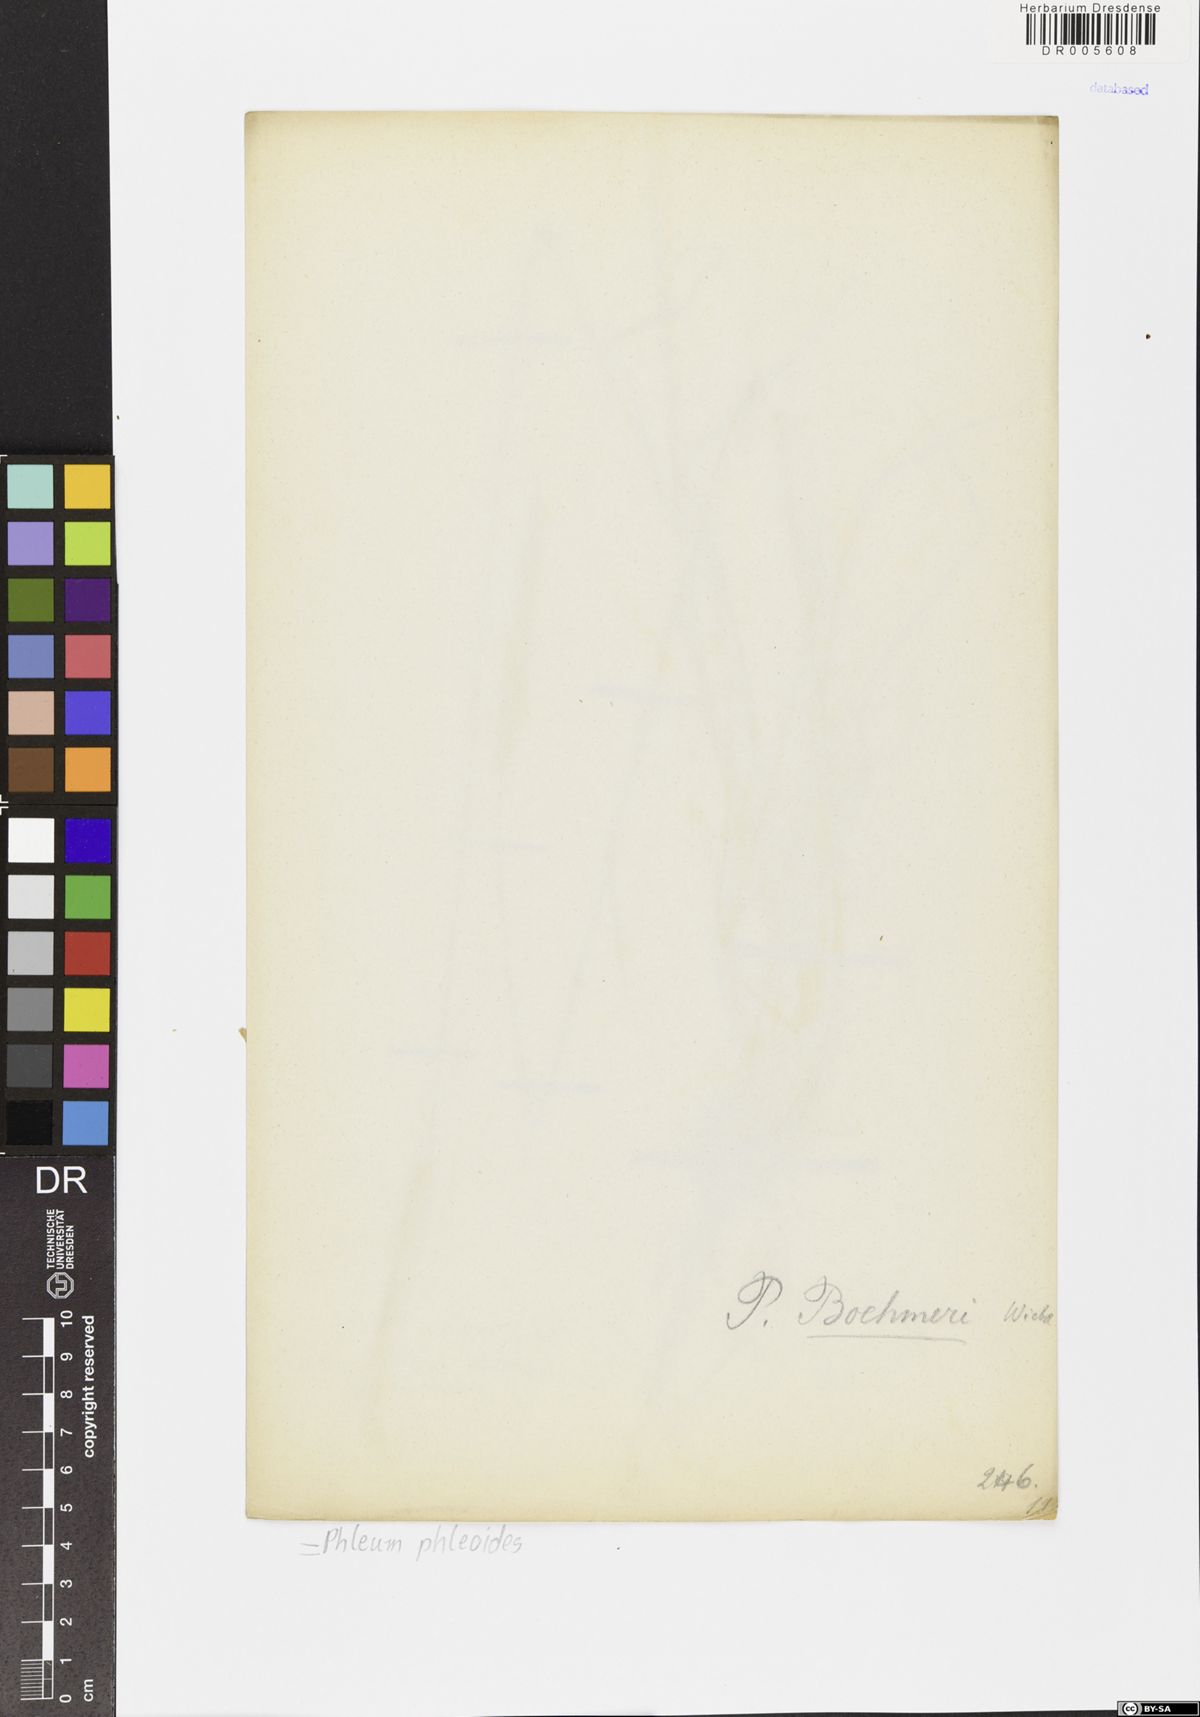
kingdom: Plantae
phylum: Tracheophyta
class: Liliopsida
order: Poales
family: Poaceae
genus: Phleum
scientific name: Phleum phleoides
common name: Purple-stem cat's-tail
